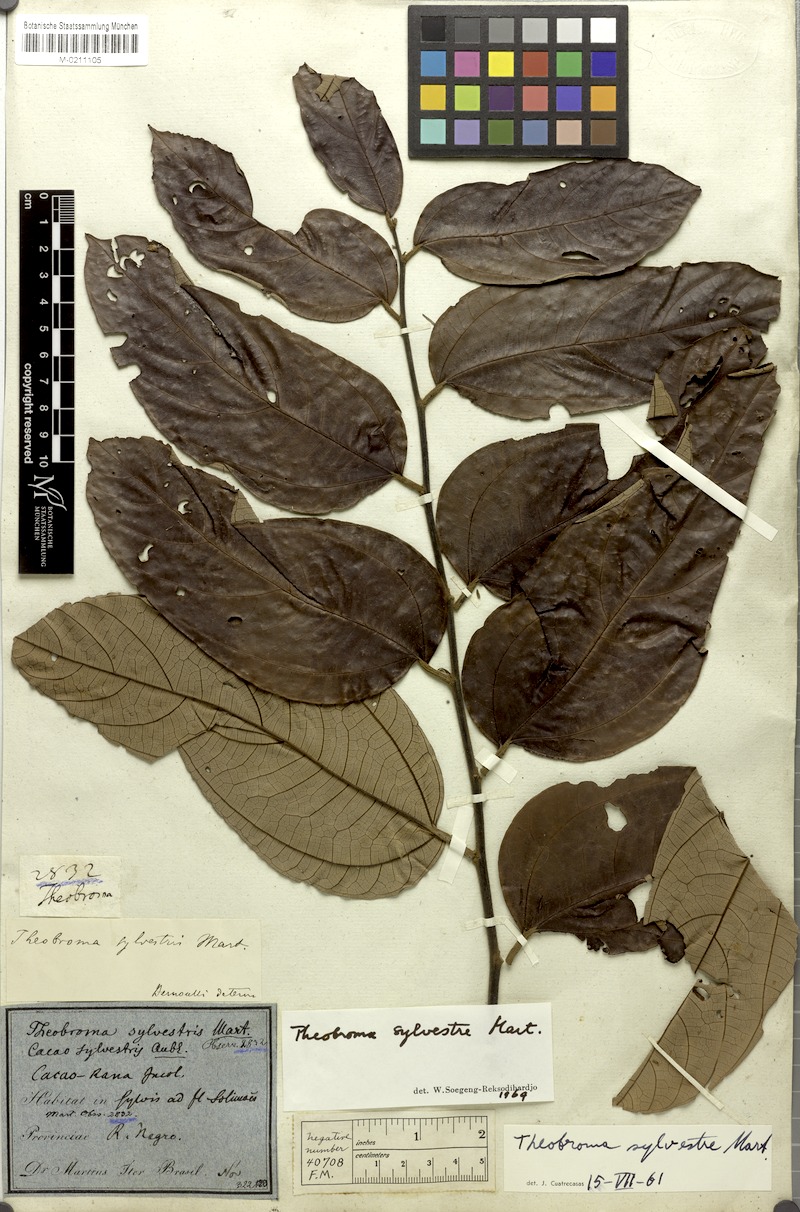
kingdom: Plantae
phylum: Tracheophyta
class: Magnoliopsida
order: Malvales
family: Malvaceae
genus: Theobroma
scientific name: Theobroma sylvestre
